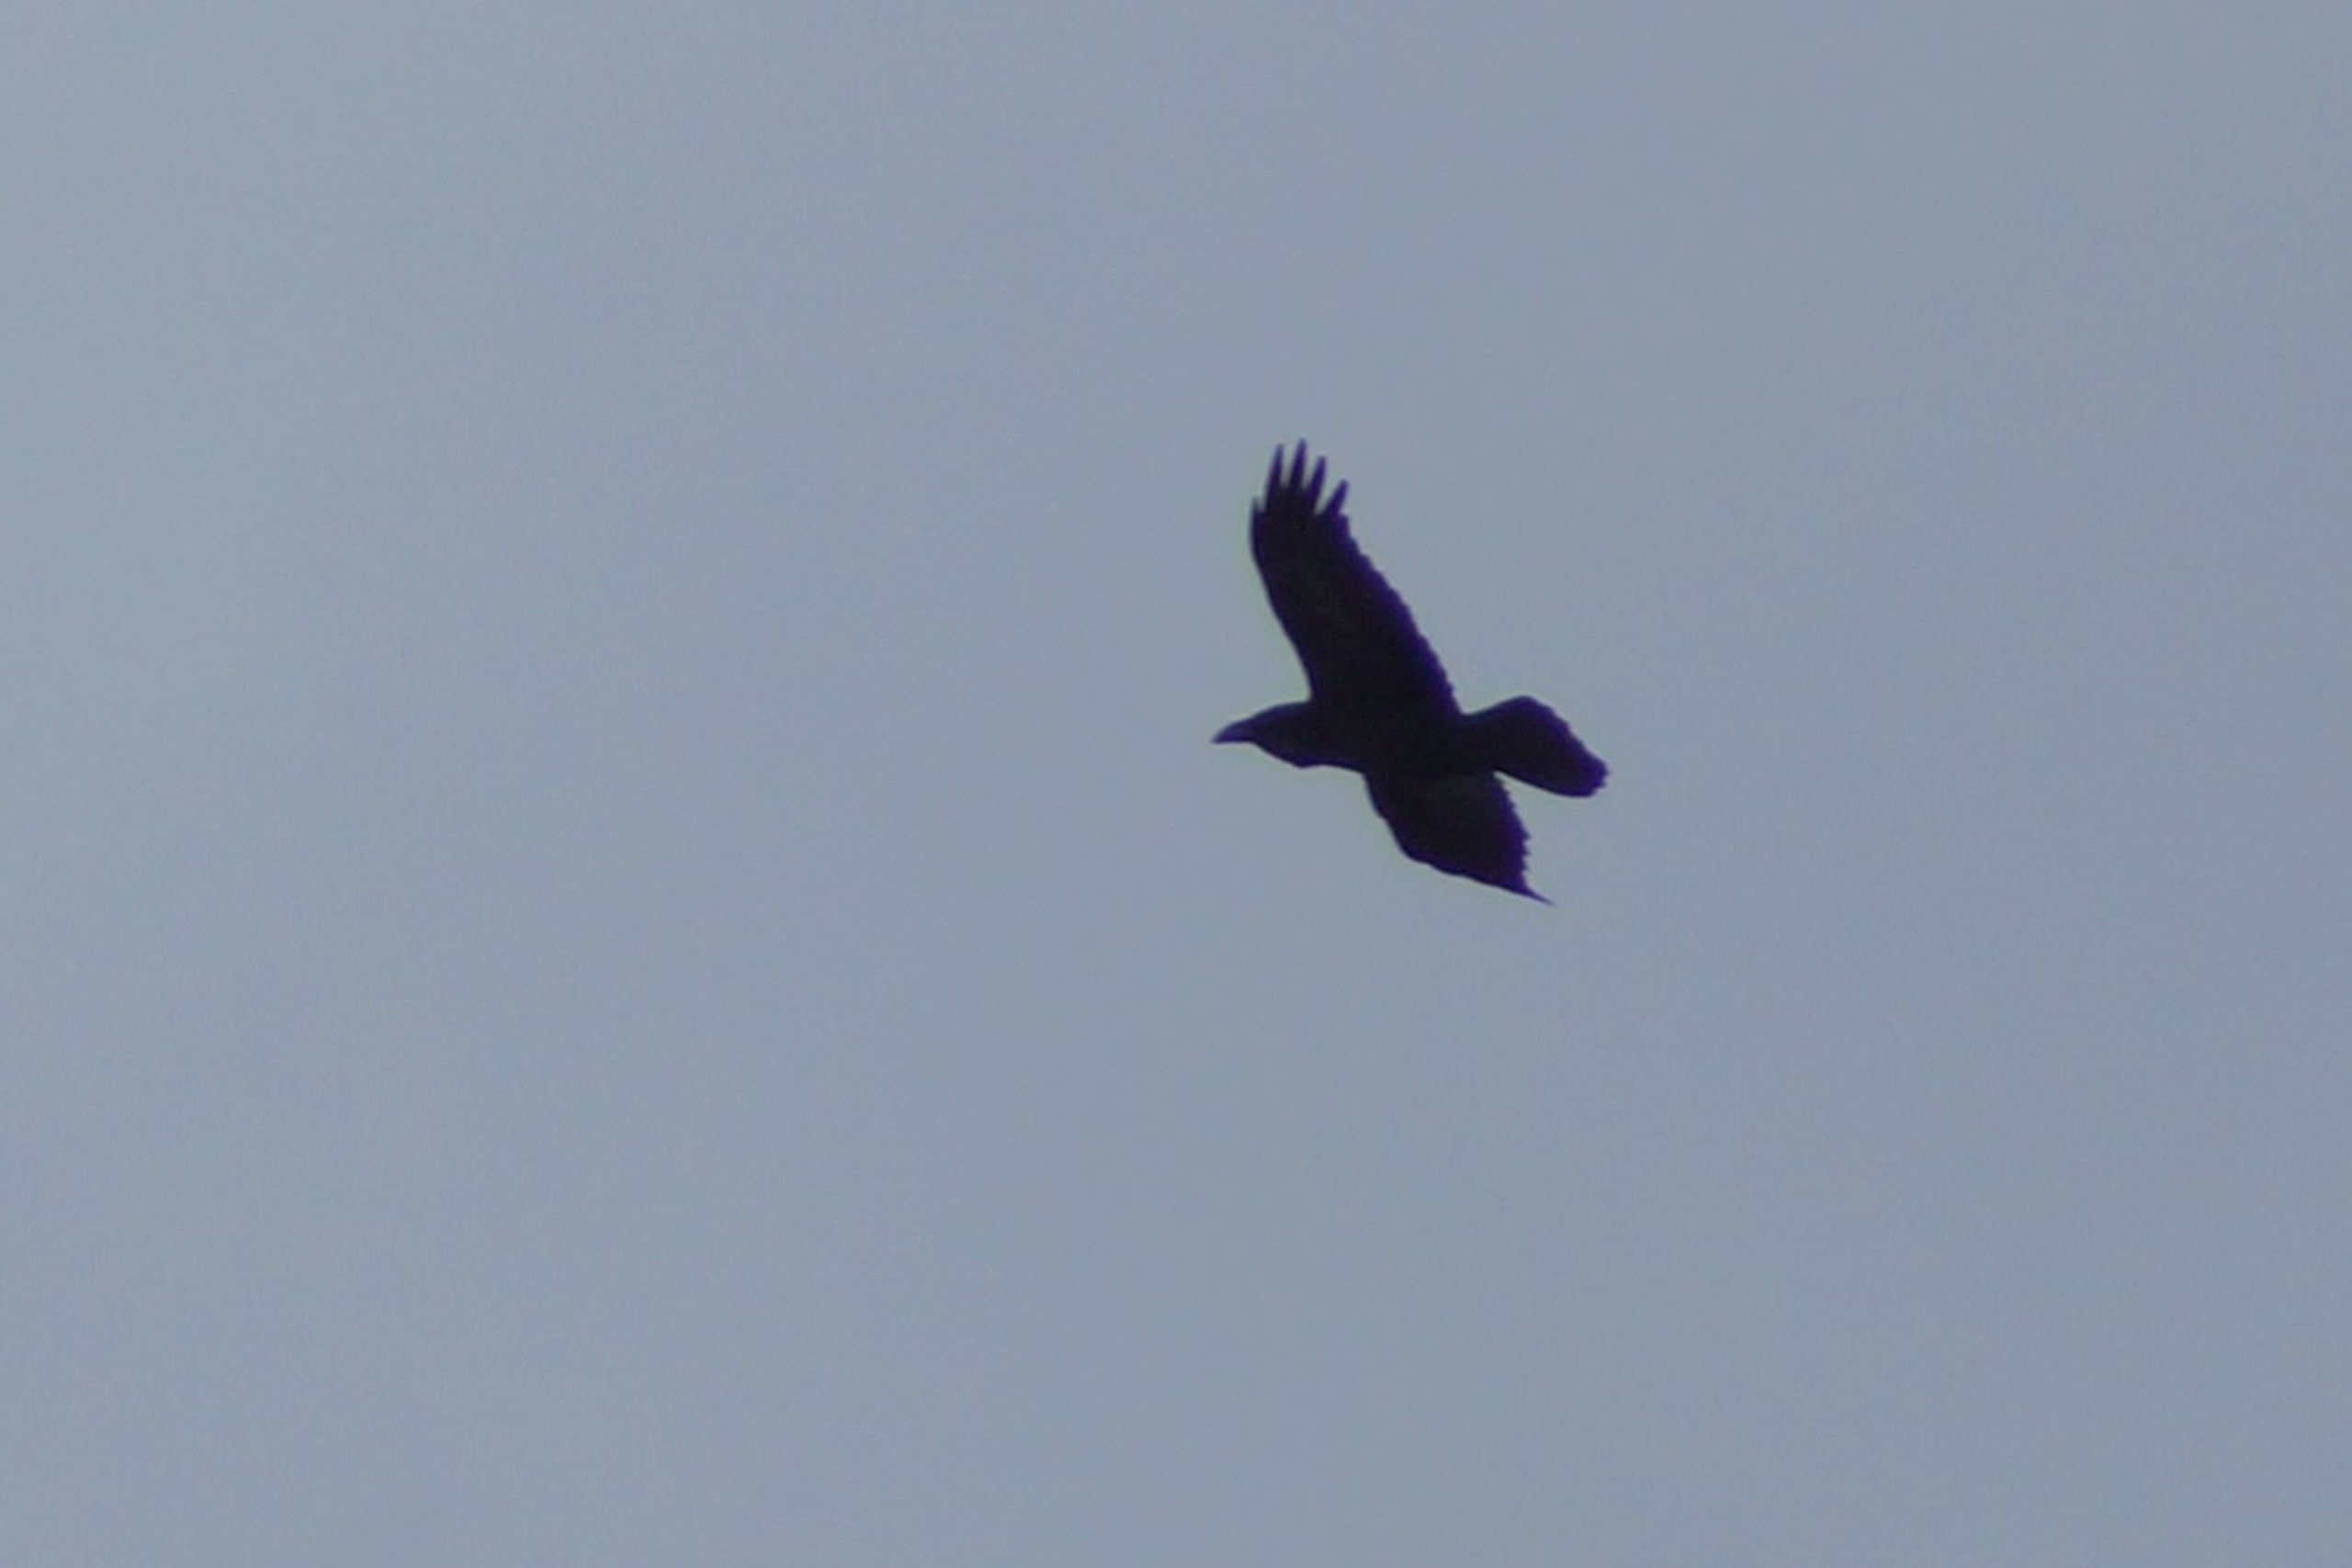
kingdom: Animalia
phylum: Chordata
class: Aves
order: Passeriformes
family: Corvidae
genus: Corvus
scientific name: Corvus corax
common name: Ravn
